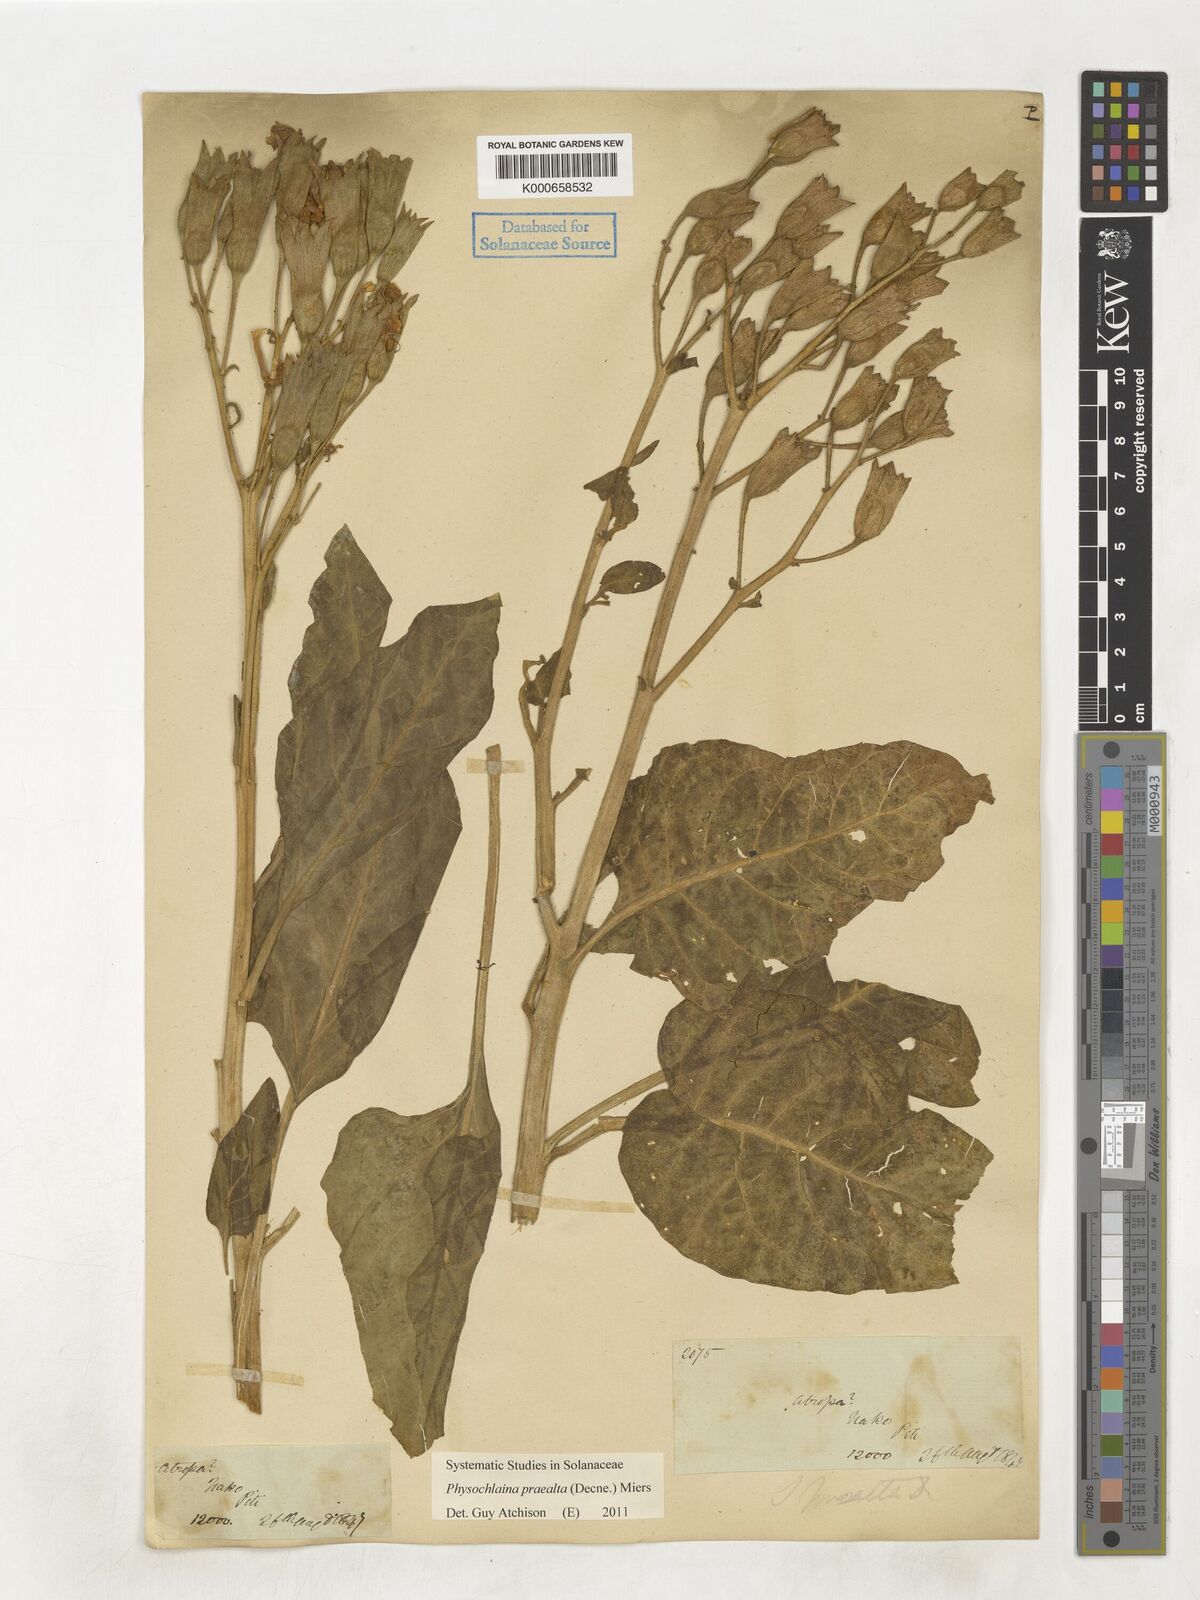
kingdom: Plantae
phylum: Tracheophyta
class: Magnoliopsida
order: Solanales
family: Solanaceae
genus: Physochlaina
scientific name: Physochlaina praealta
